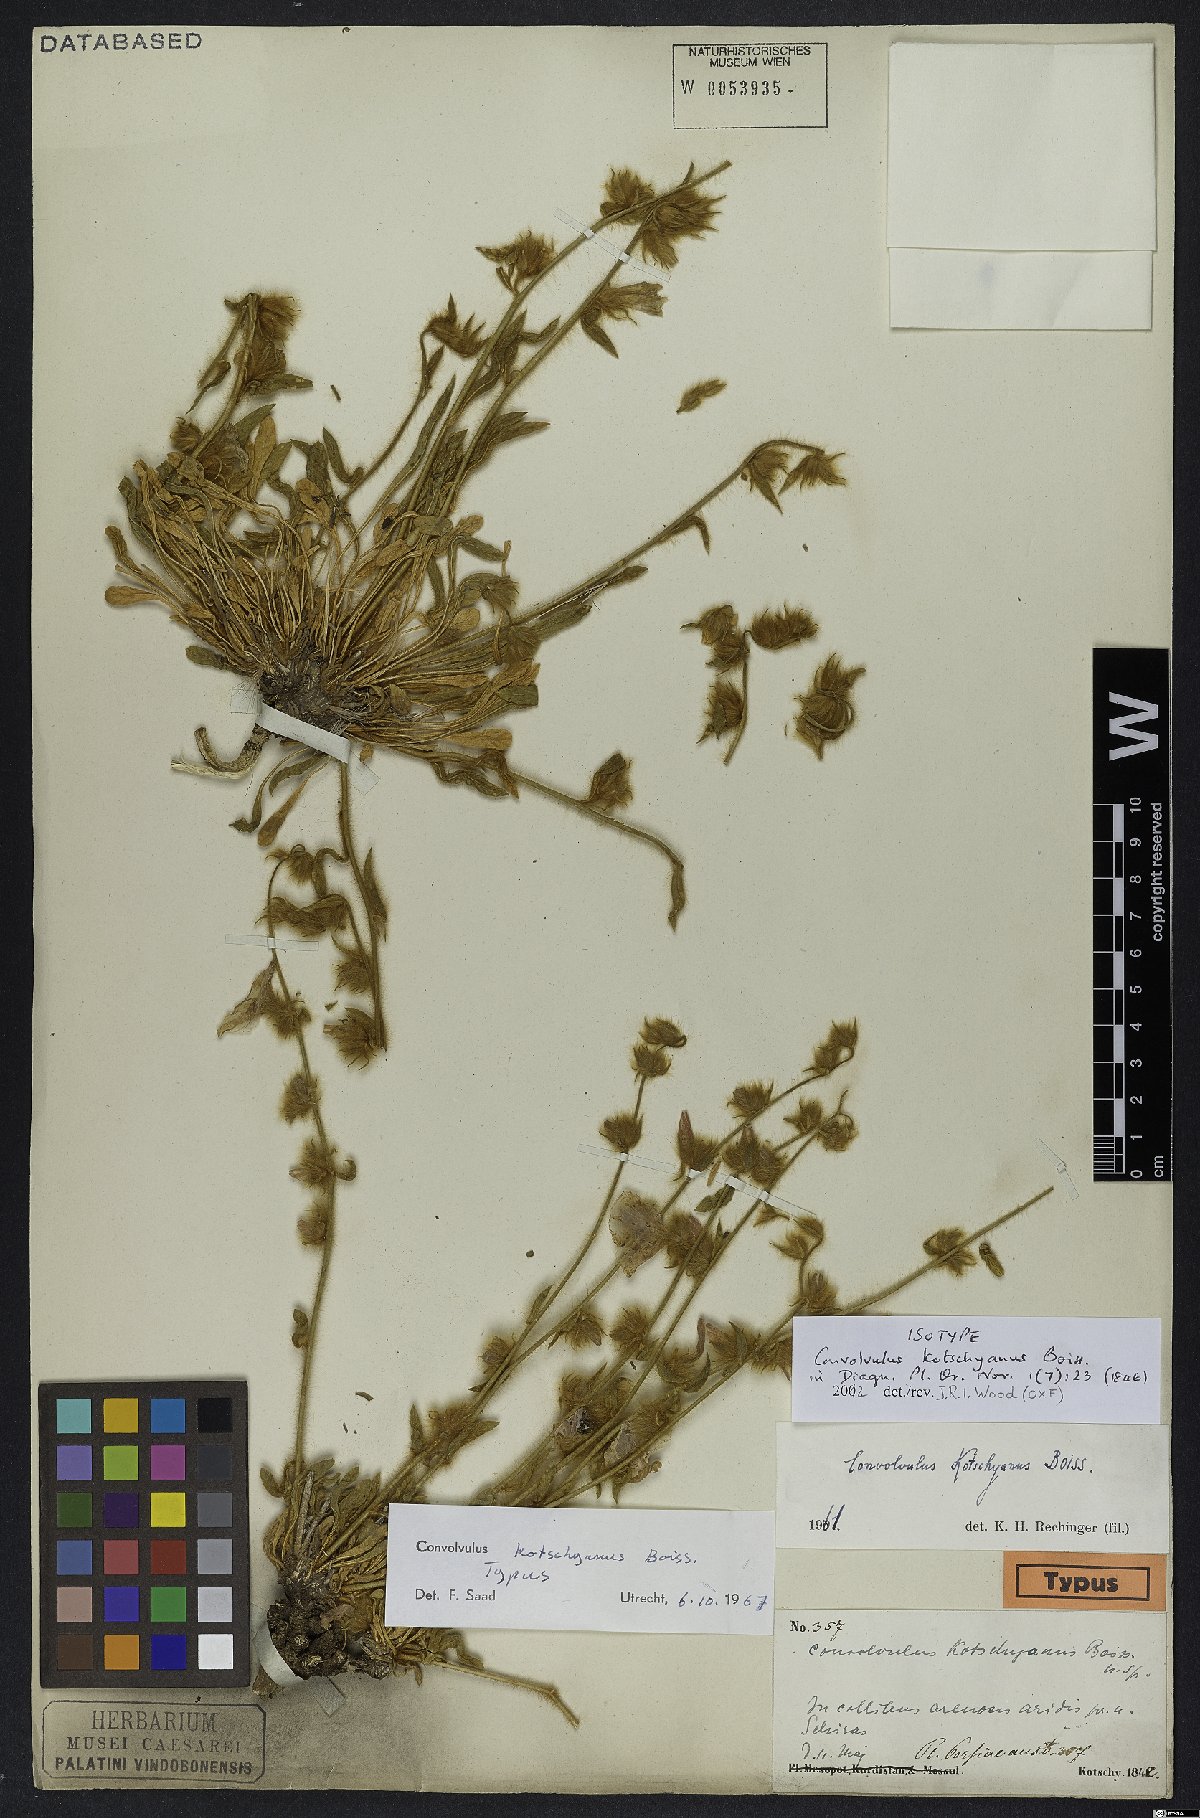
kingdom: Plantae
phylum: Tracheophyta
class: Magnoliopsida
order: Solanales
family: Convolvulaceae
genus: Convolvulus
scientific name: Convolvulus kotschyanus
